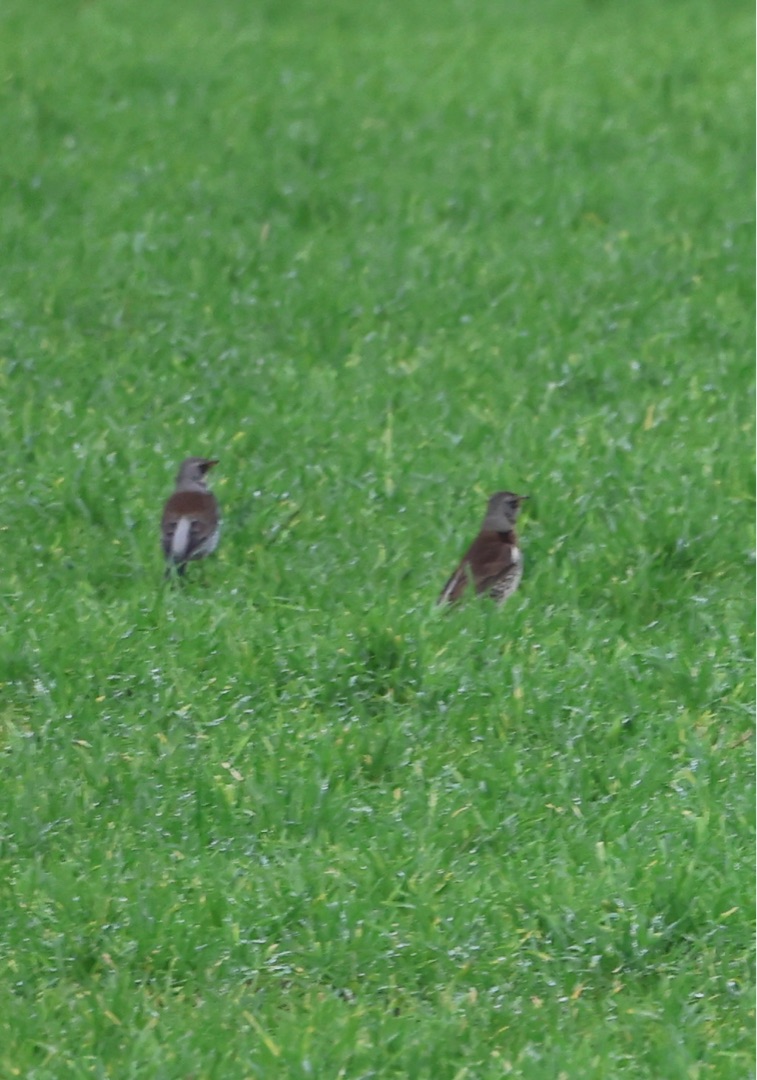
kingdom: Animalia
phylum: Chordata
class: Aves
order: Passeriformes
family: Turdidae
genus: Turdus
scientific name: Turdus pilaris
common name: Sjagger
